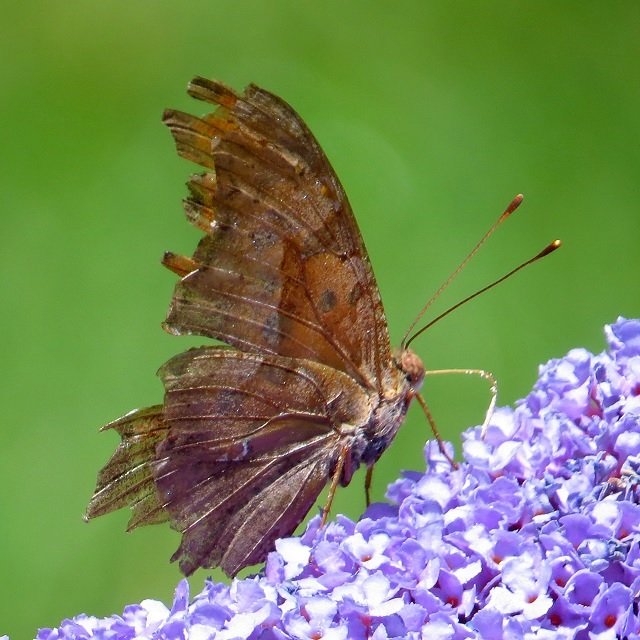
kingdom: Animalia
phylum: Arthropoda
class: Insecta
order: Lepidoptera
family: Nymphalidae
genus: Polygonia
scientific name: Polygonia interrogationis
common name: Question Mark
